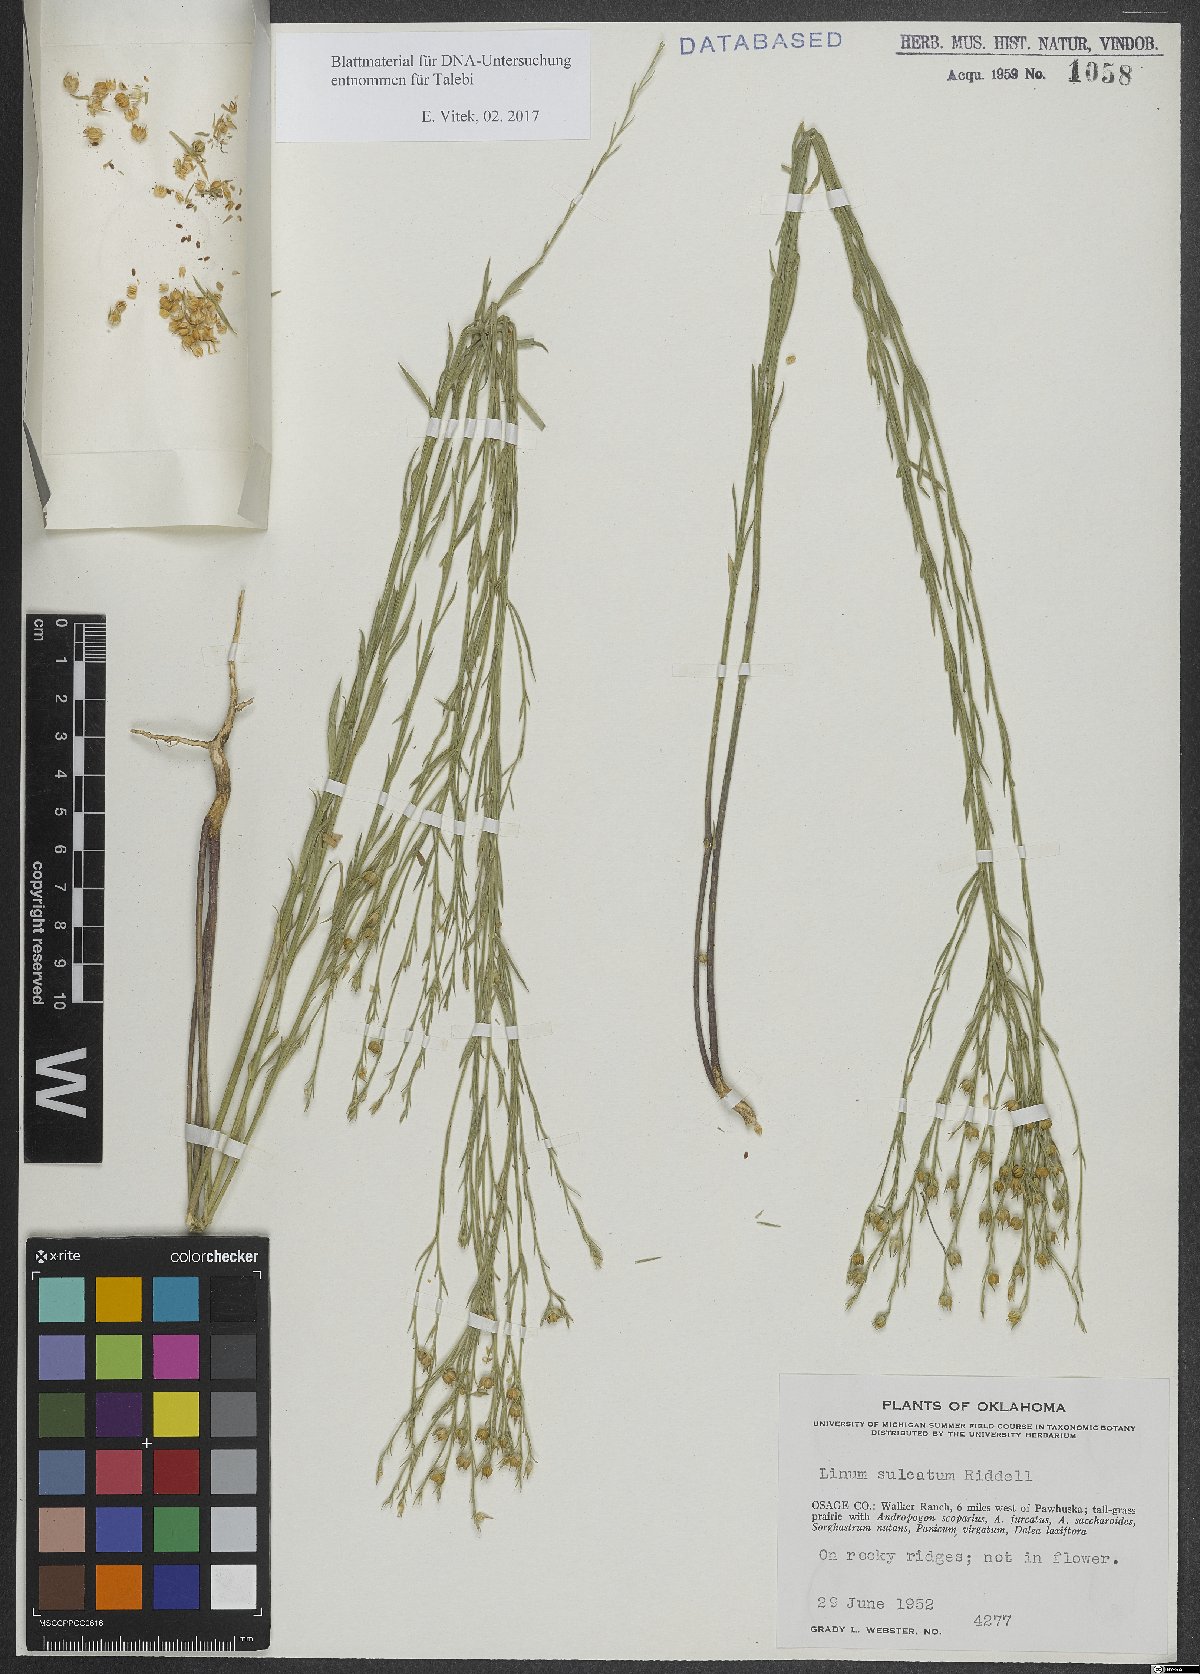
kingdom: Plantae
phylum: Tracheophyta
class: Magnoliopsida
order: Malpighiales
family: Linaceae
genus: Linum
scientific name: Linum sulcatum
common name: Grooved flax
